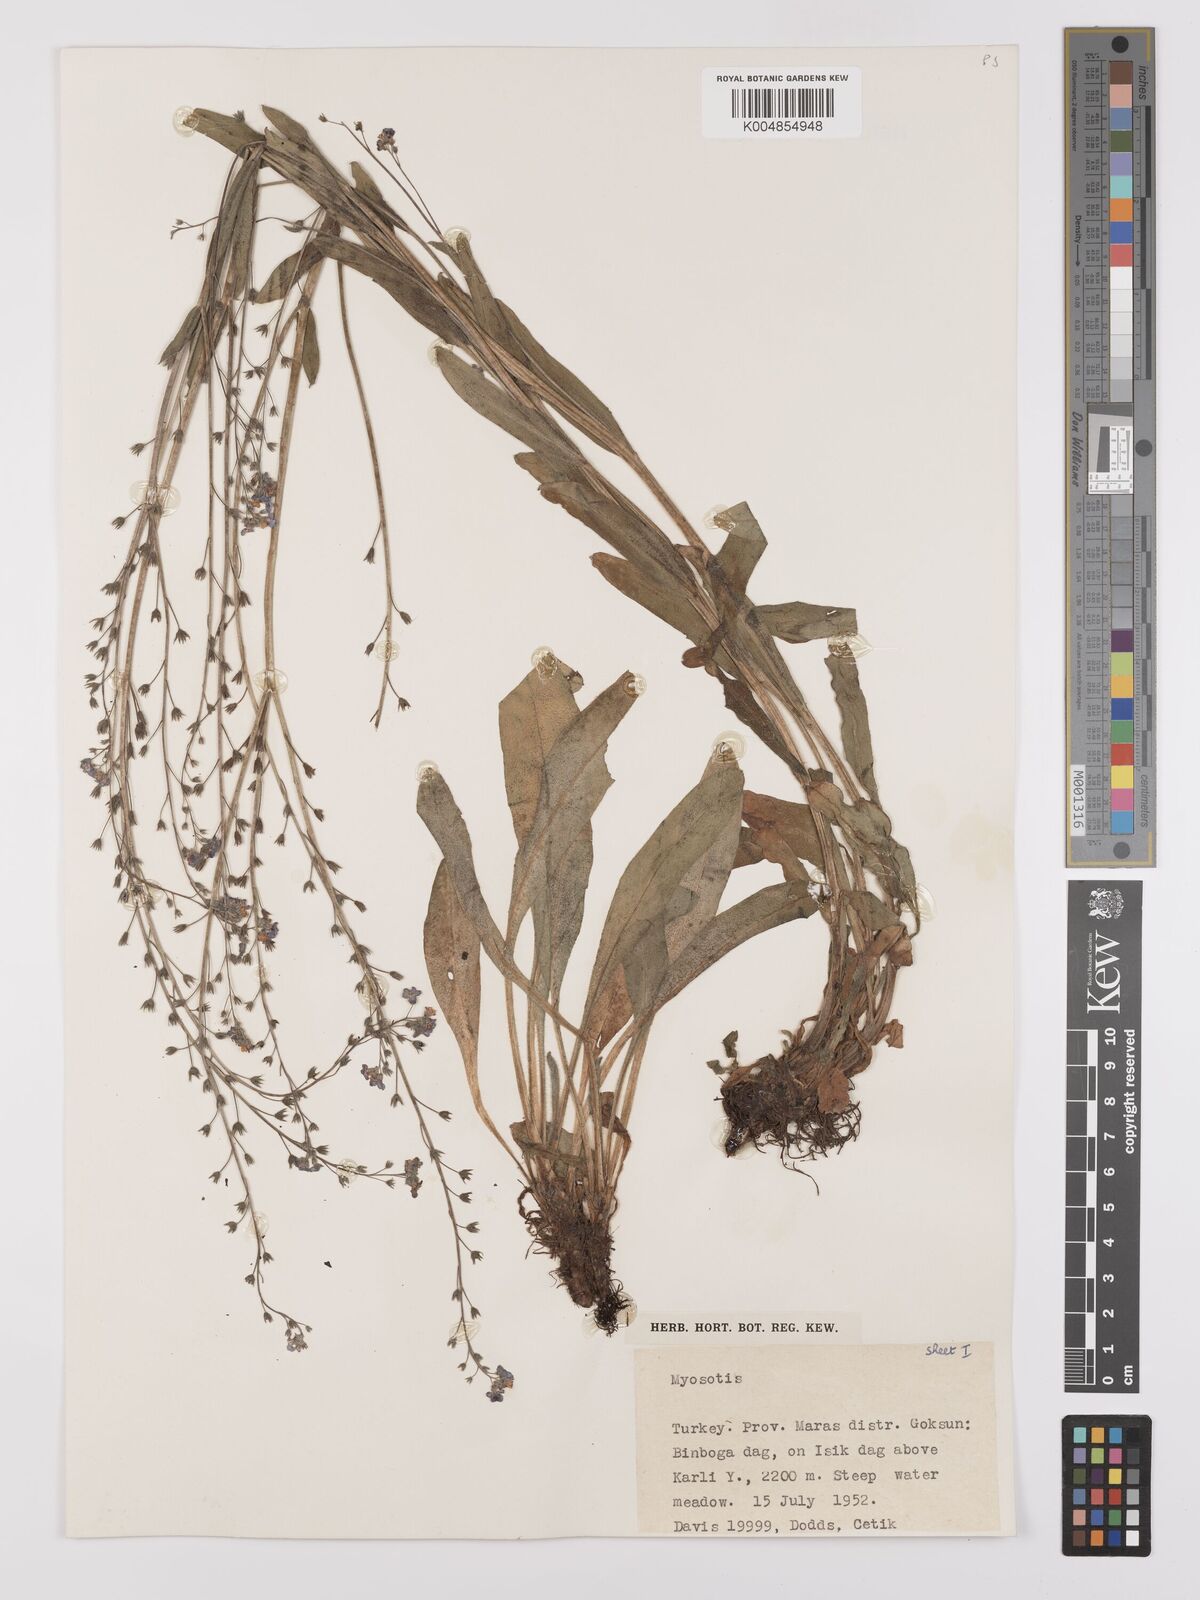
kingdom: Plantae
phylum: Tracheophyta
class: Magnoliopsida
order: Boraginales
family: Boraginaceae
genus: Myosotis
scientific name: Myosotis
